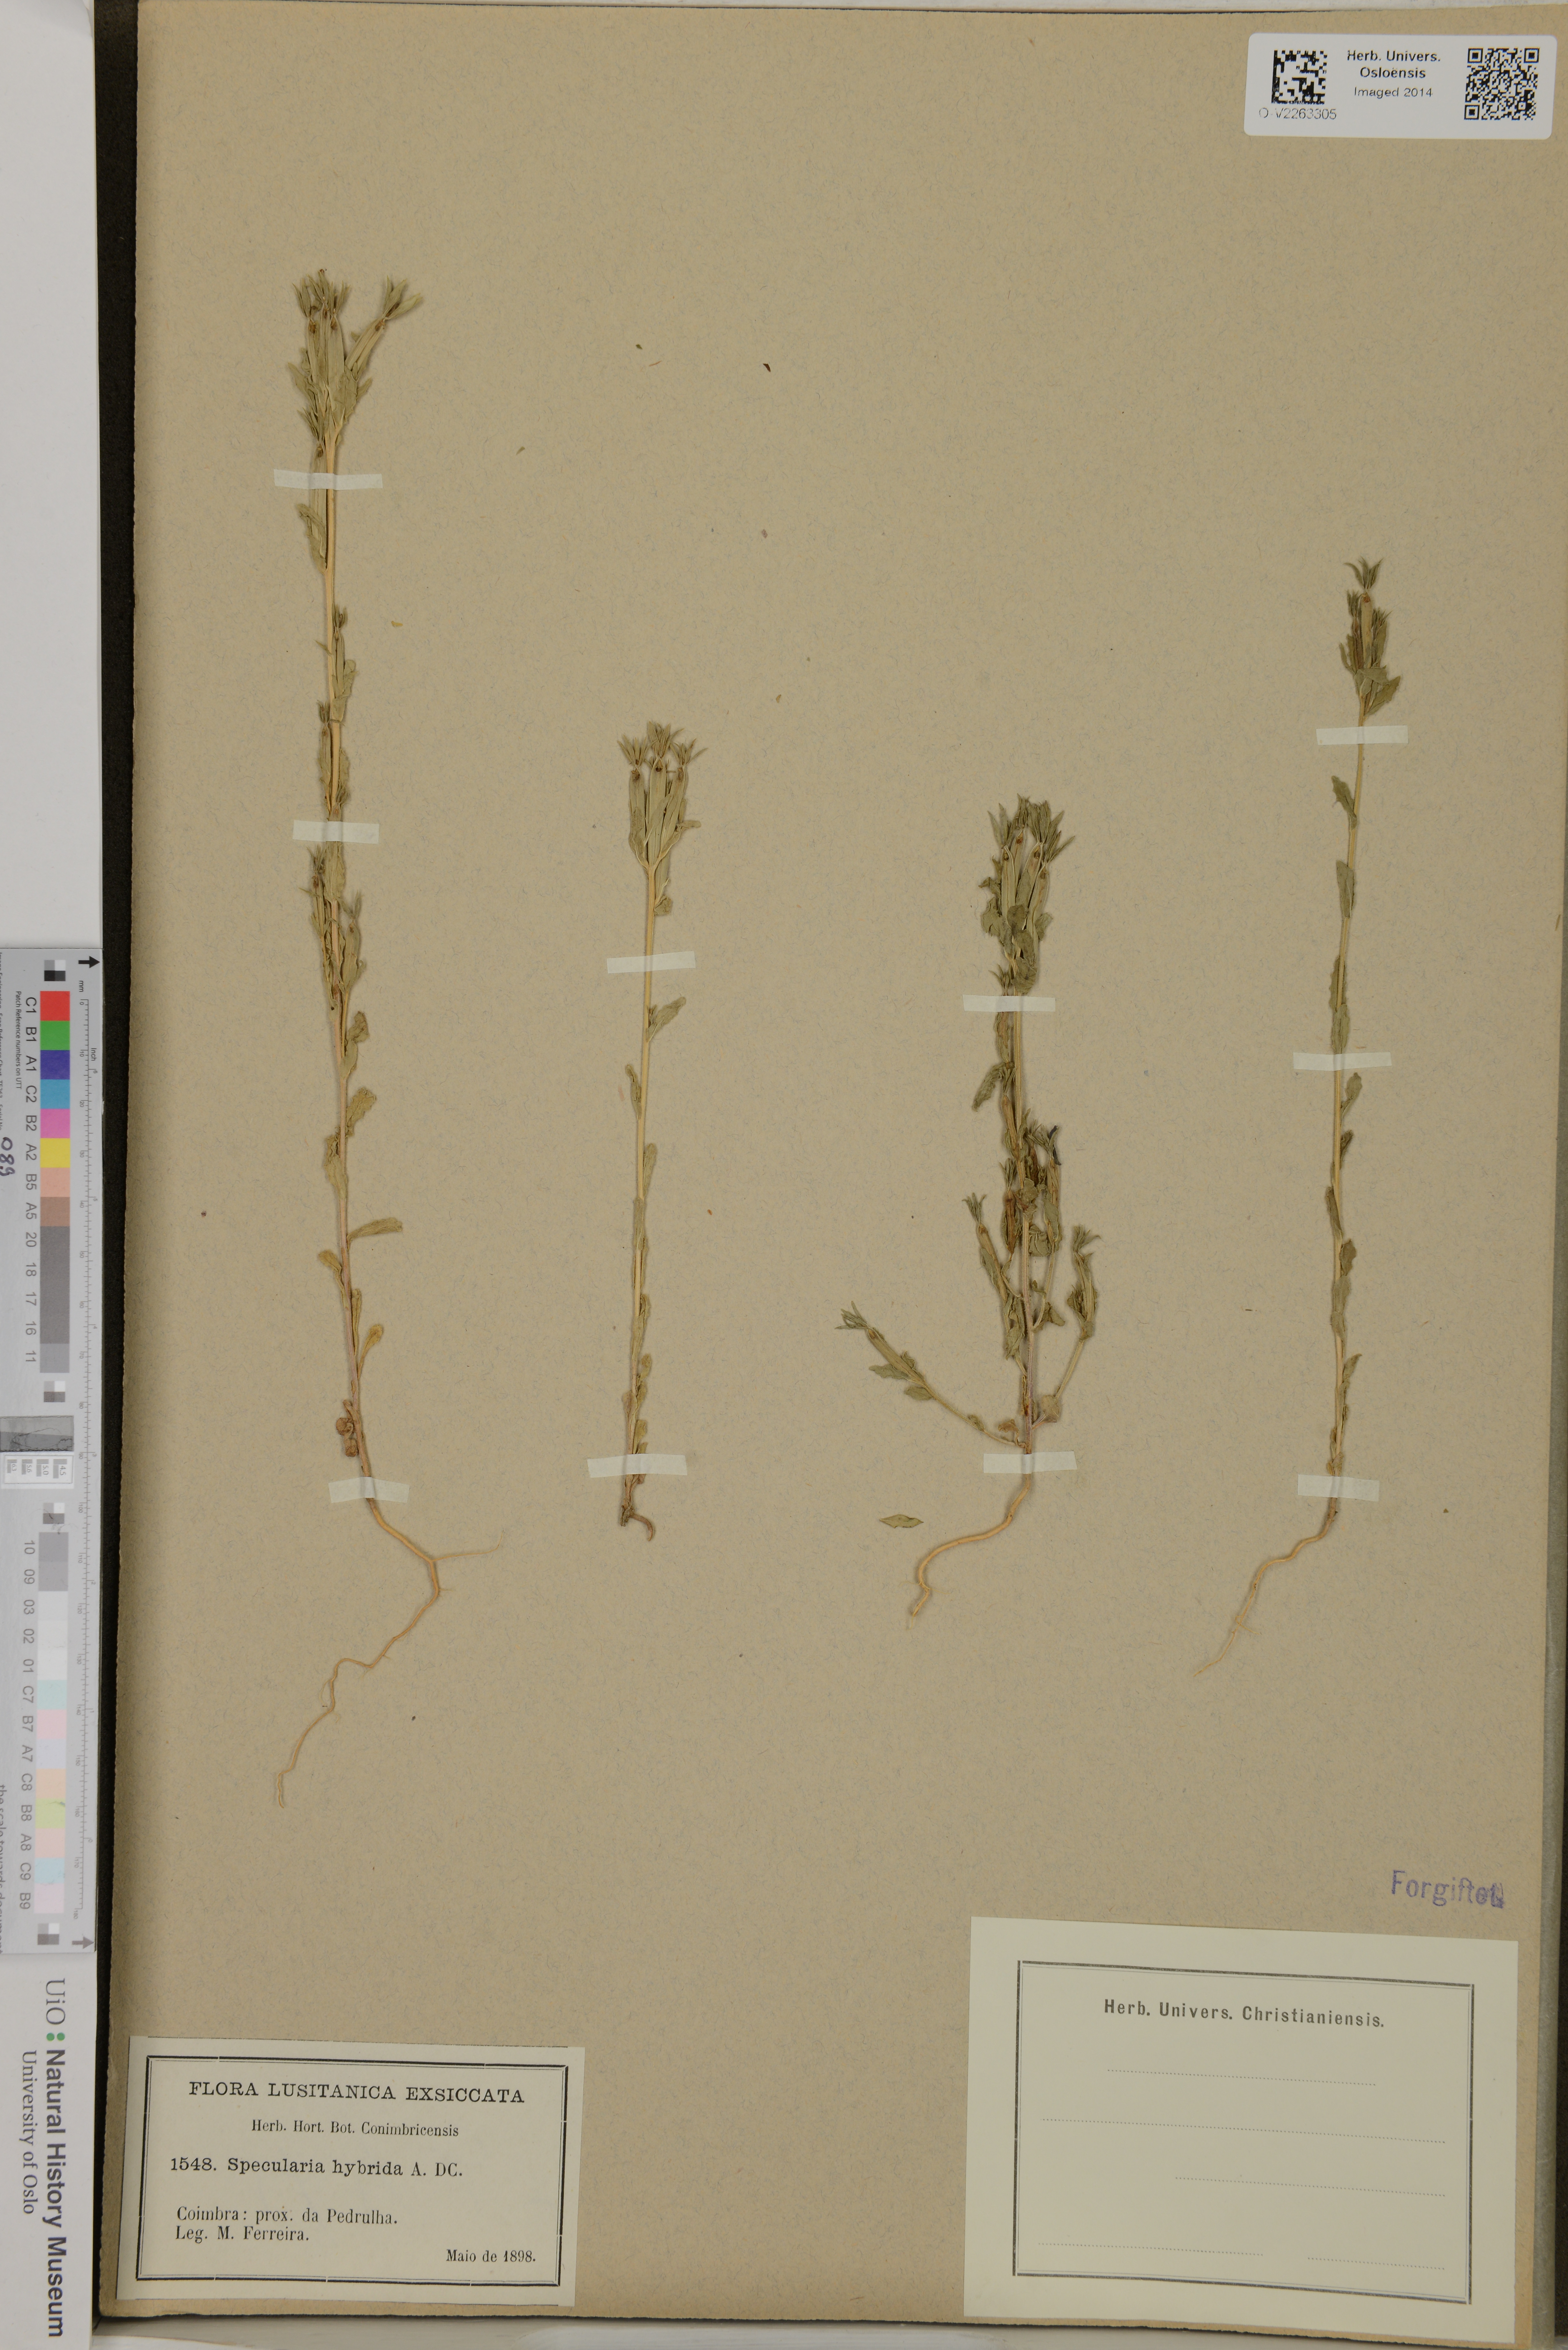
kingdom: Plantae
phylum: Tracheophyta
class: Magnoliopsida
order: Asterales
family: Campanulaceae
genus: Legousia
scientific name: Legousia hybrida
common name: Venus's-looking-glass
